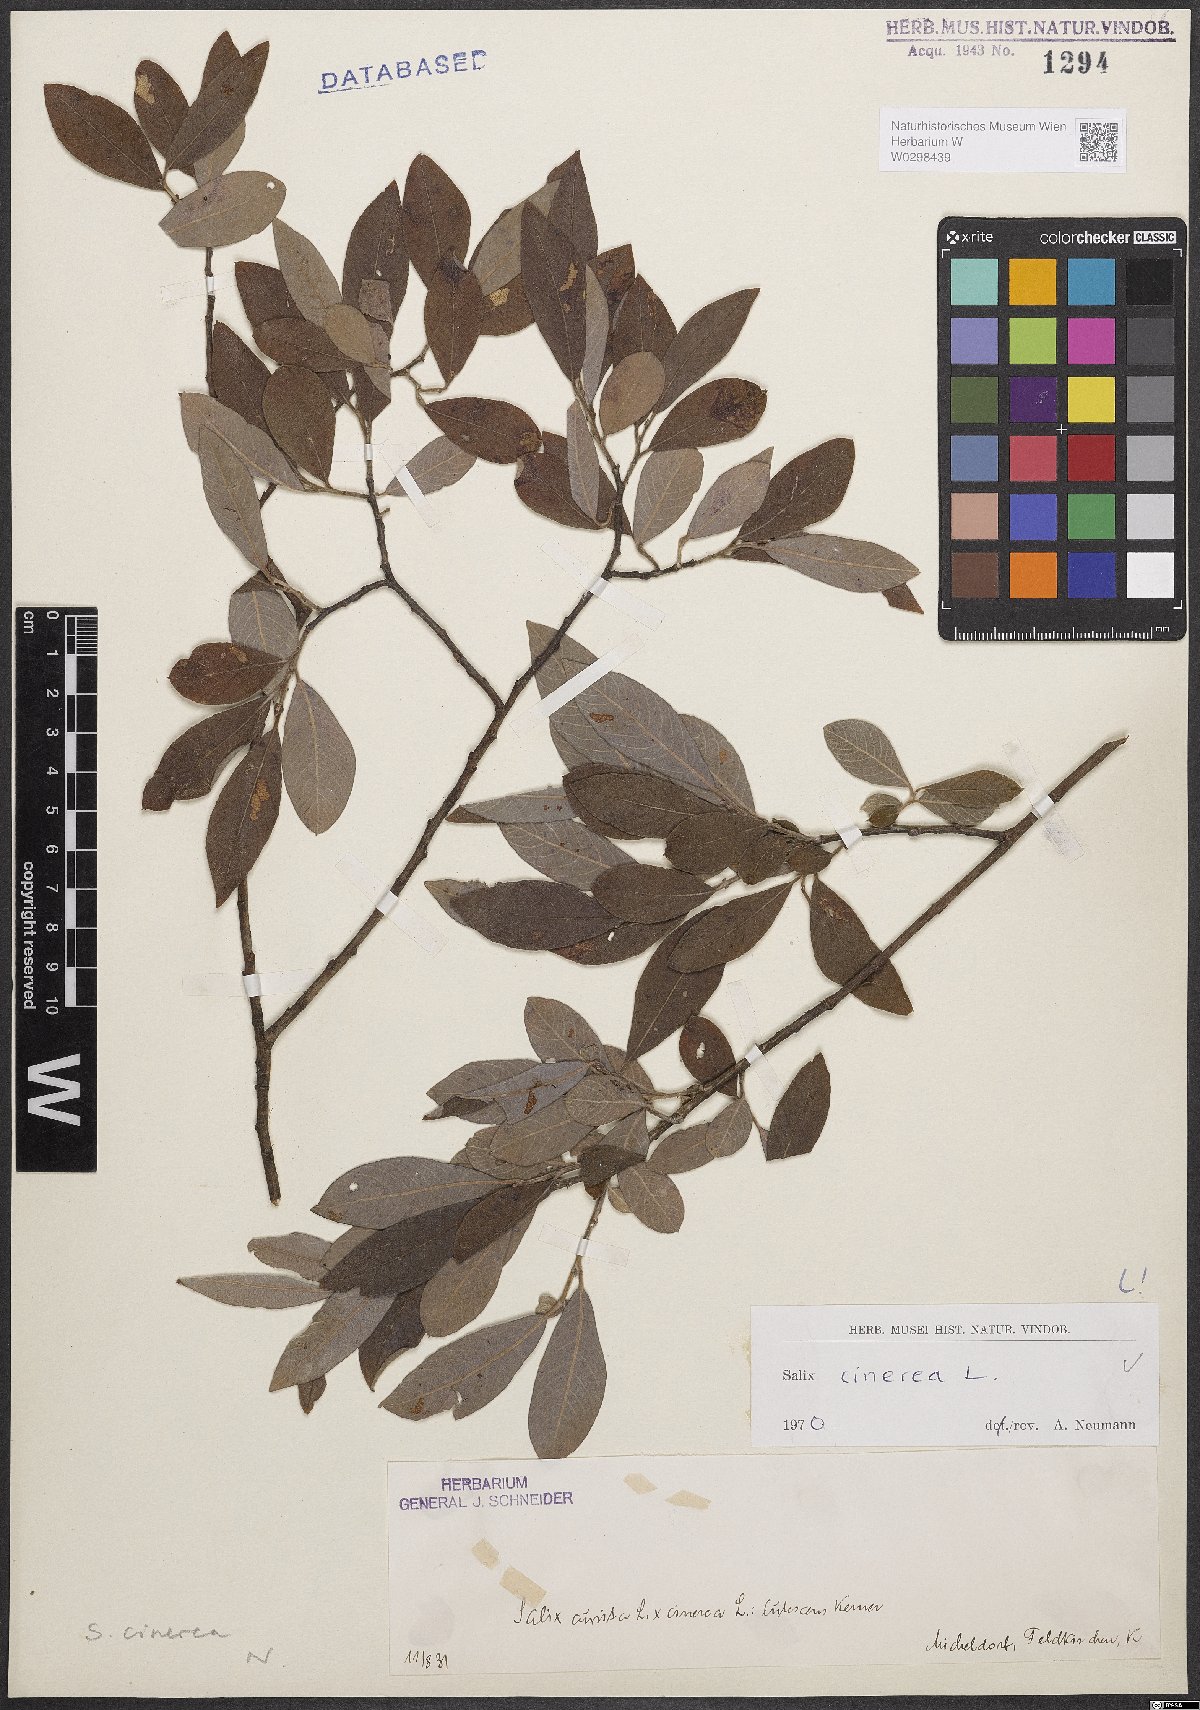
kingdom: Plantae
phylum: Tracheophyta
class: Magnoliopsida
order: Malpighiales
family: Salicaceae
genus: Salix
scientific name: Salix cinerea
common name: Common sallow
